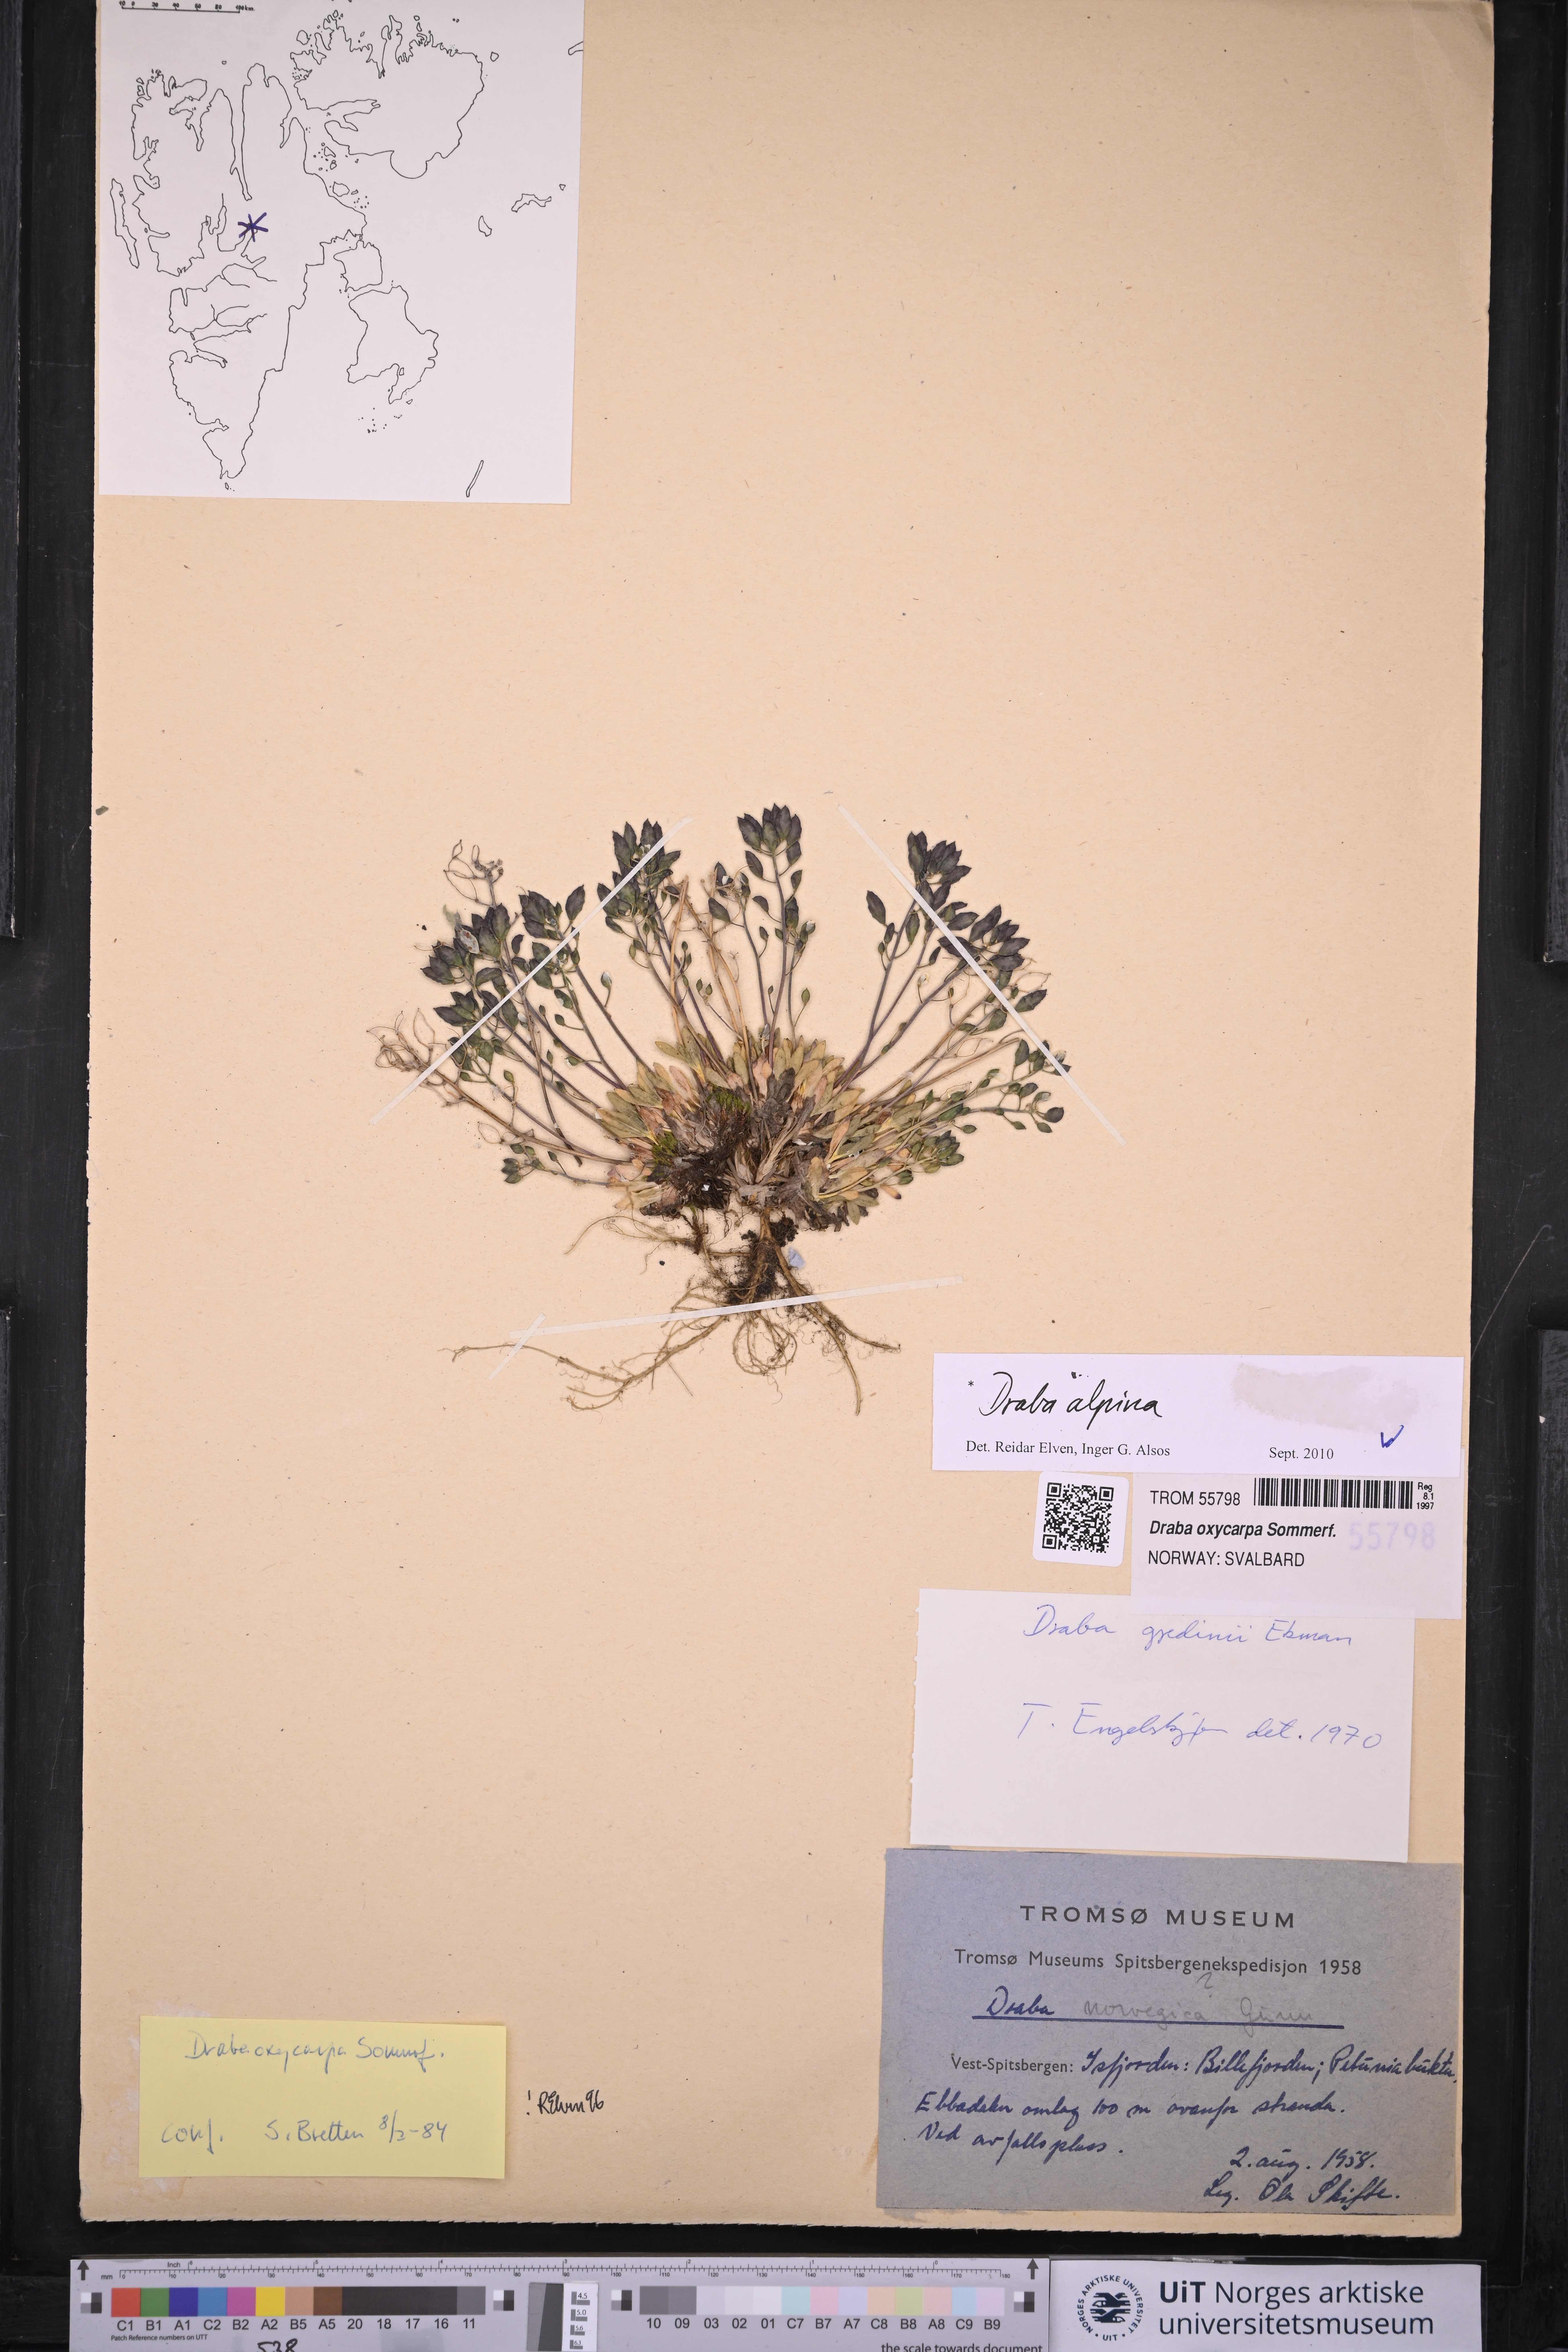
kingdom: Plantae
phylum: Tracheophyta
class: Magnoliopsida
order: Brassicales
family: Brassicaceae
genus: Draba
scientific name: Draba alpina
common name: Alpine draba
